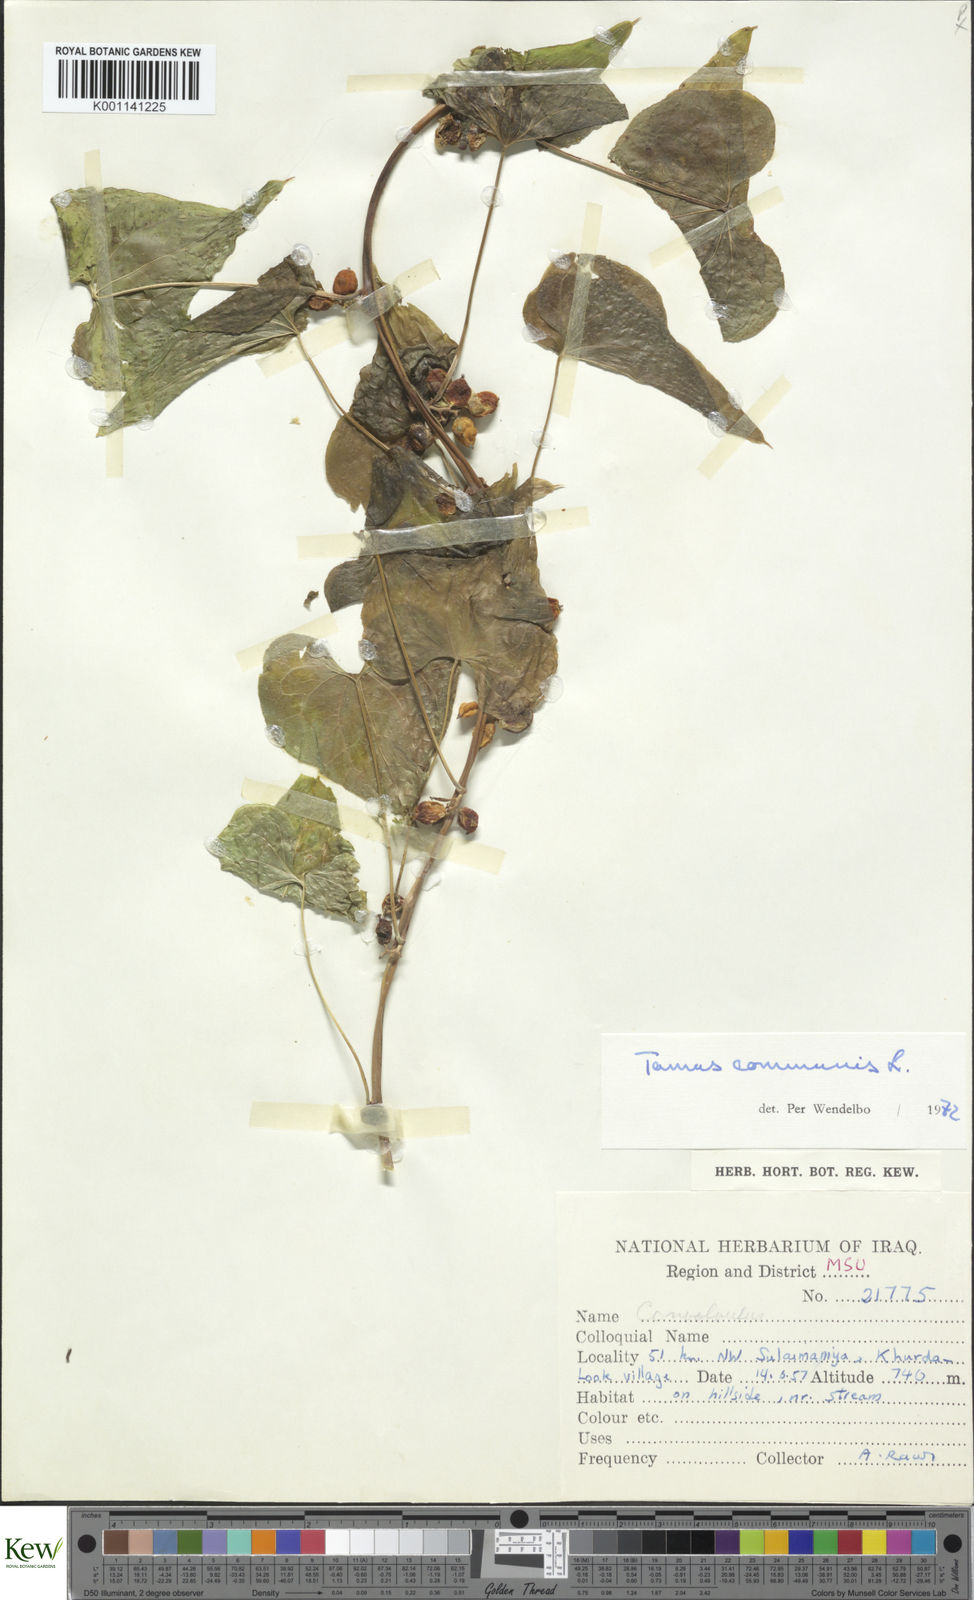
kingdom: Plantae
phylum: Tracheophyta
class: Liliopsida
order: Dioscoreales
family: Dioscoreaceae
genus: Dioscorea
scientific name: Dioscorea communis
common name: Black-bindweed
